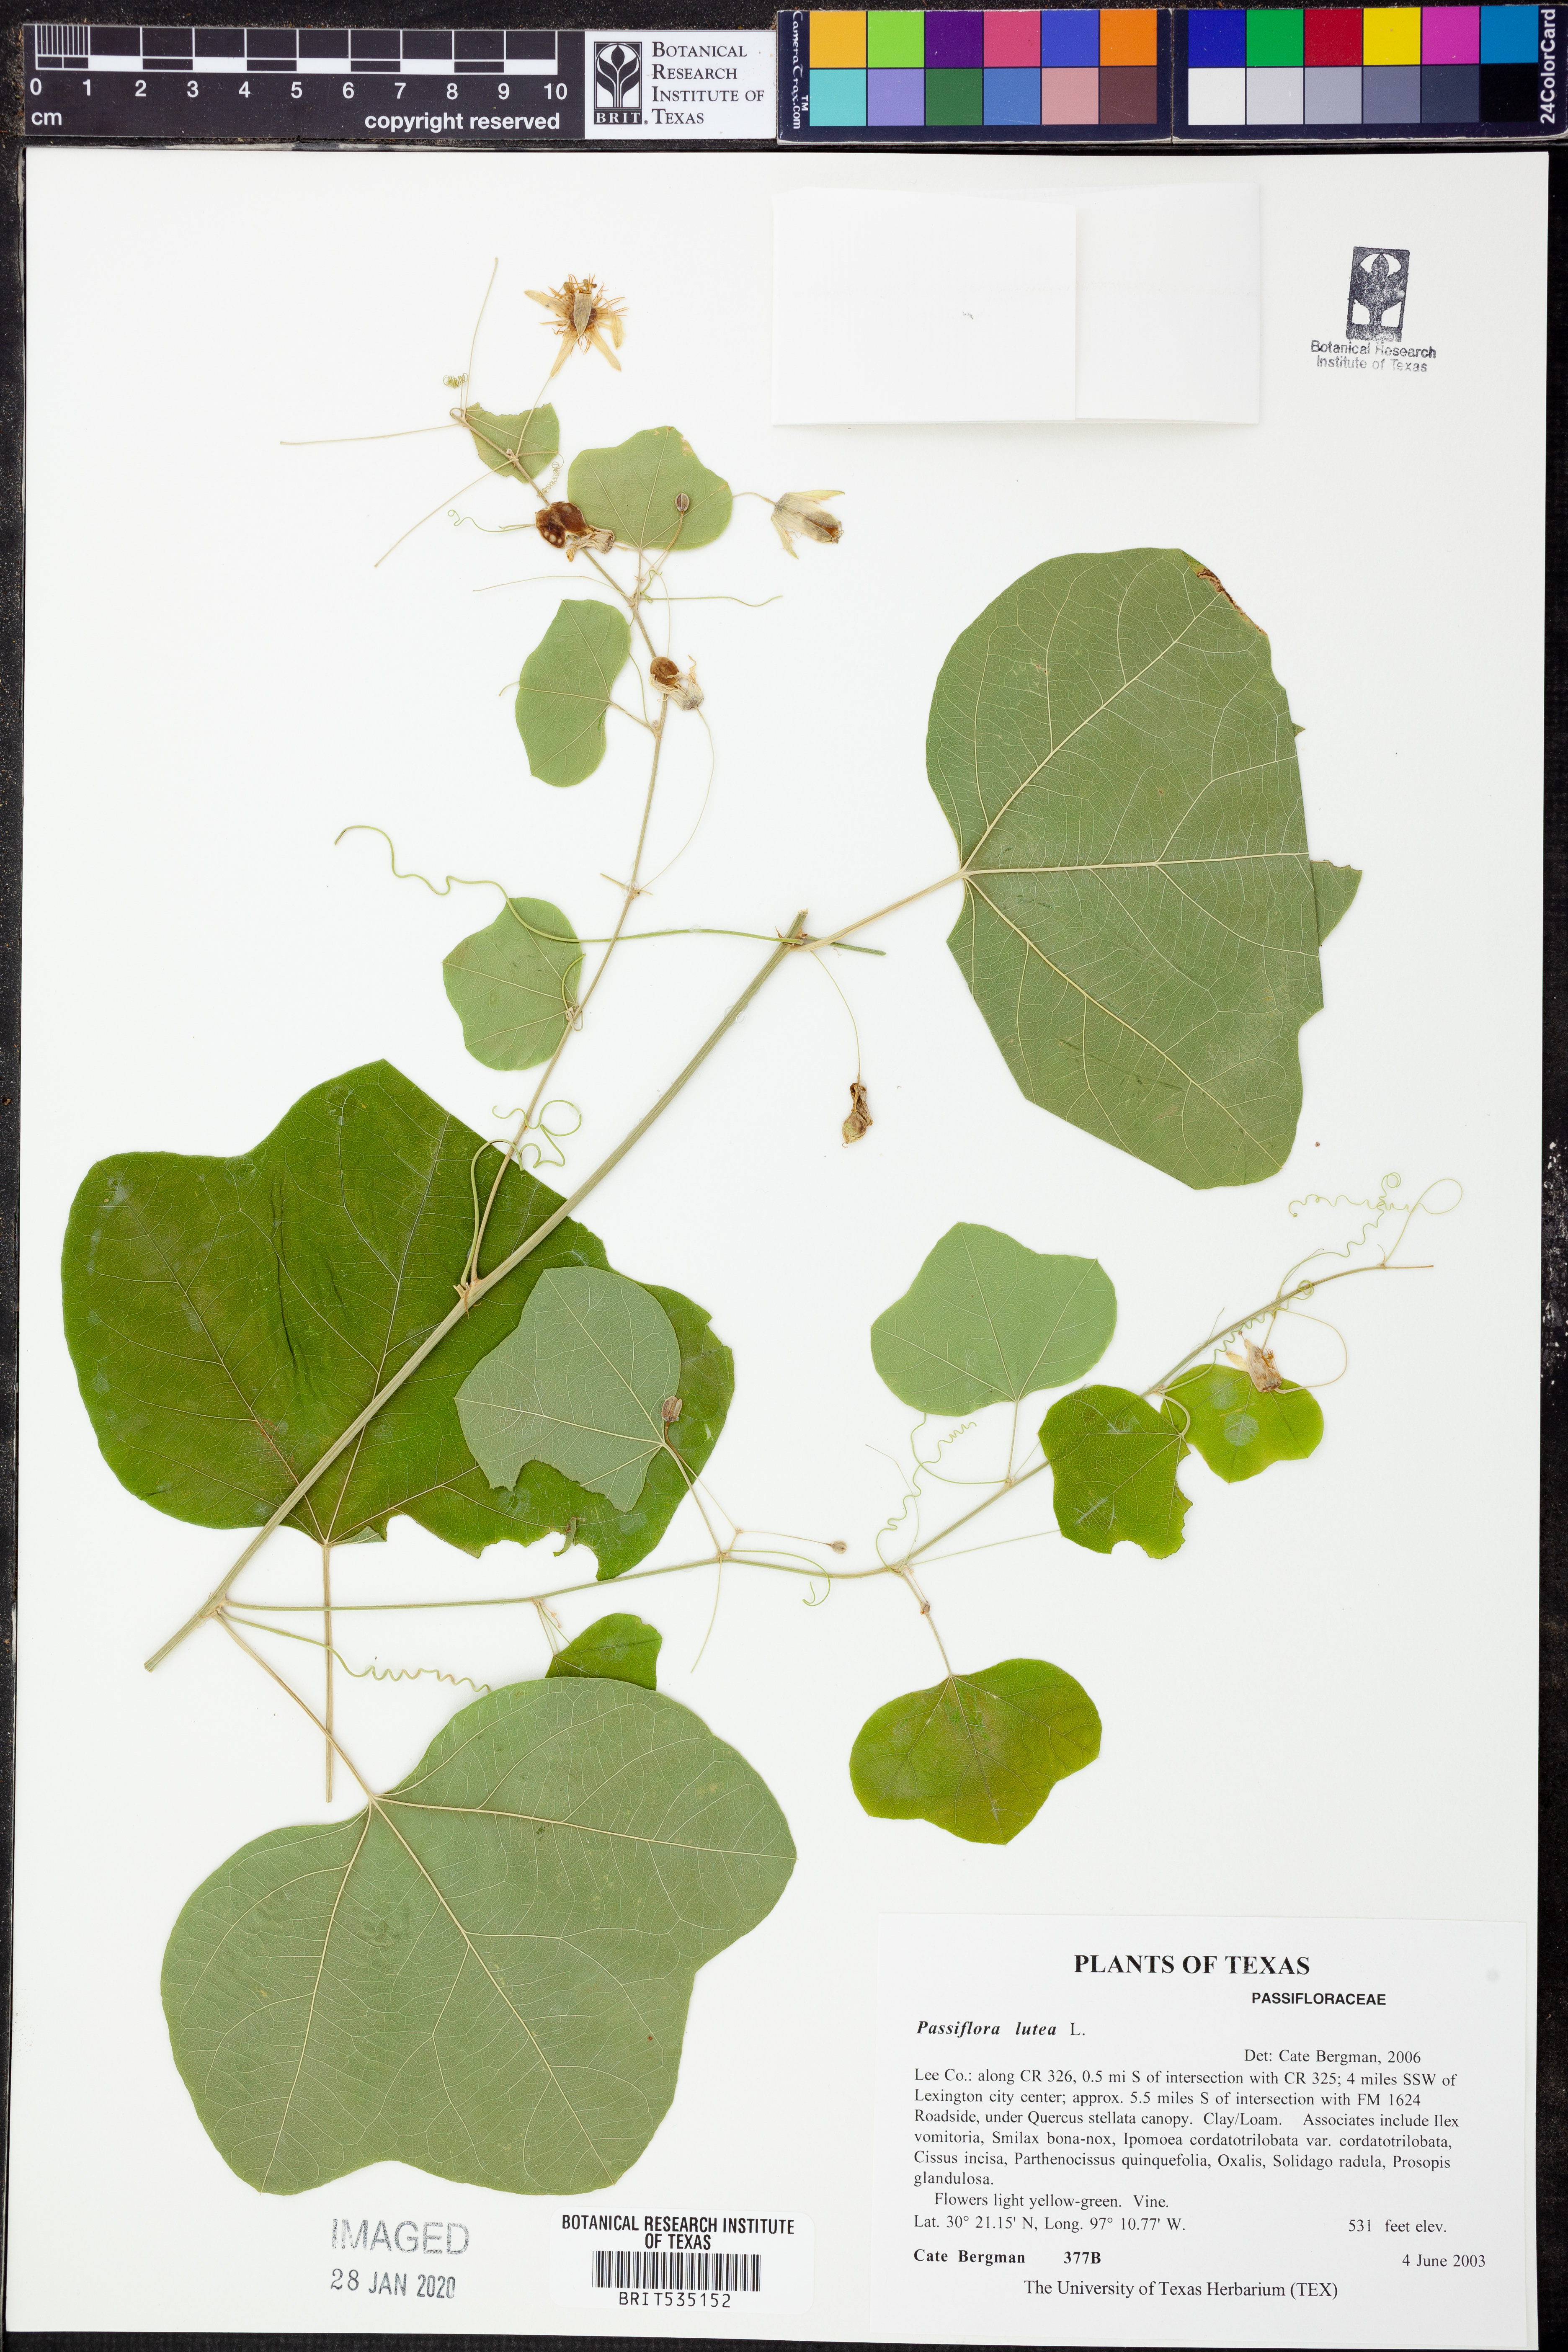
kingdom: Plantae
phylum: Tracheophyta
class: Magnoliopsida
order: Malpighiales
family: Passifloraceae
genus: Passiflora
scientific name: Passiflora lutea
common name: Yellow passionflower
